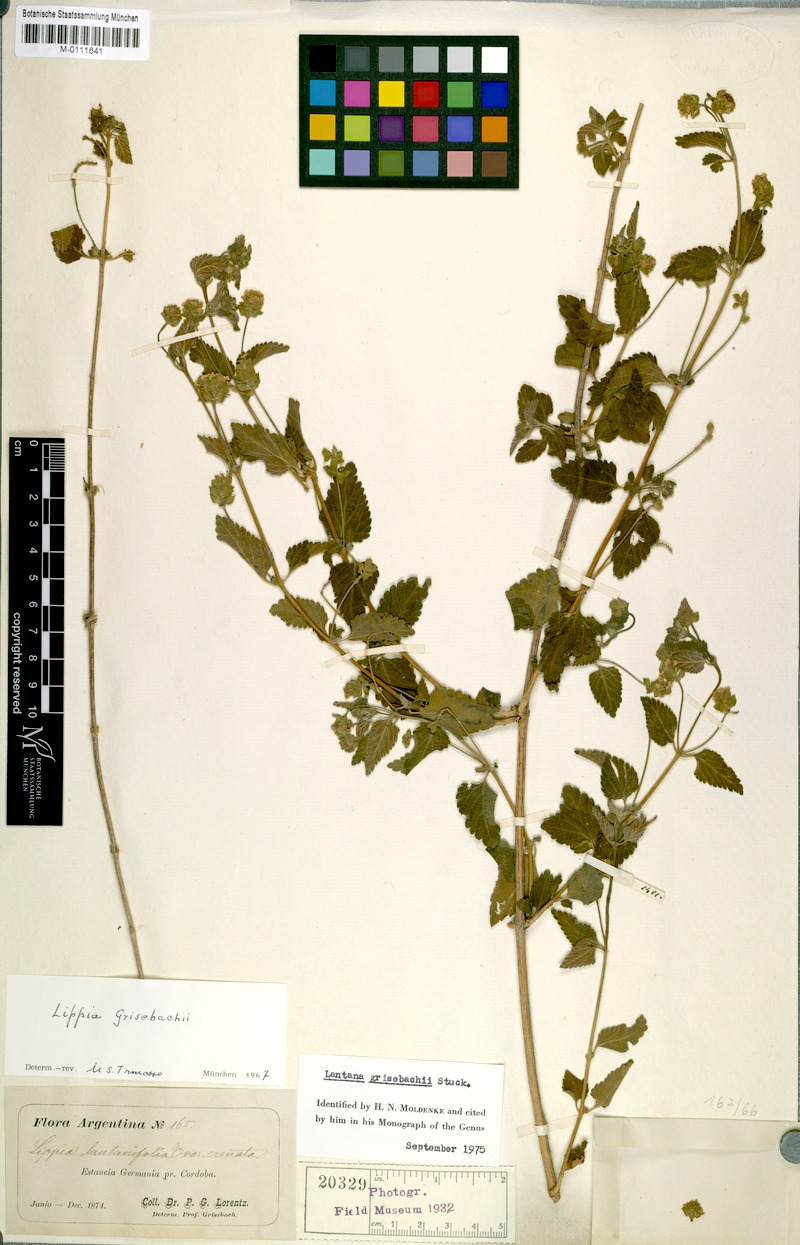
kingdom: Plantae
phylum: Tracheophyta
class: Magnoliopsida
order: Lamiales
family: Verbenaceae
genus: Lippia
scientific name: Lippia junelliana
